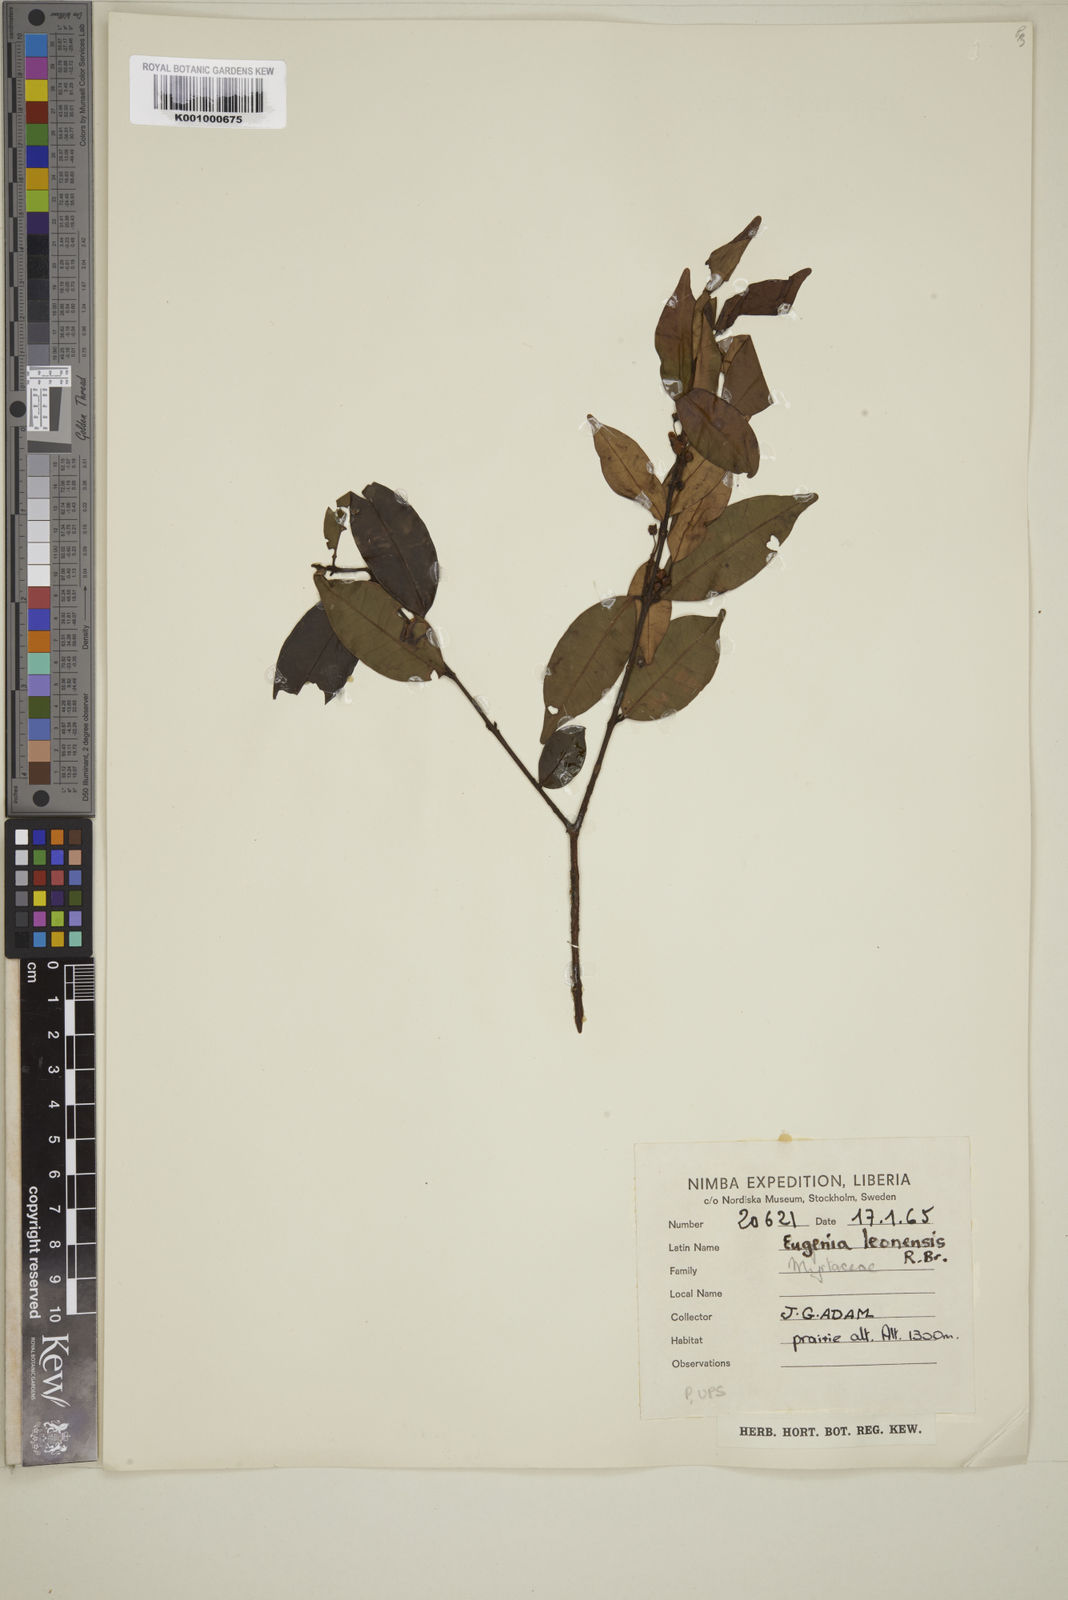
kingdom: Plantae
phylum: Tracheophyta
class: Magnoliopsida
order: Myrtales
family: Myrtaceae
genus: Eugenia
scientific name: Eugenia leonensis
